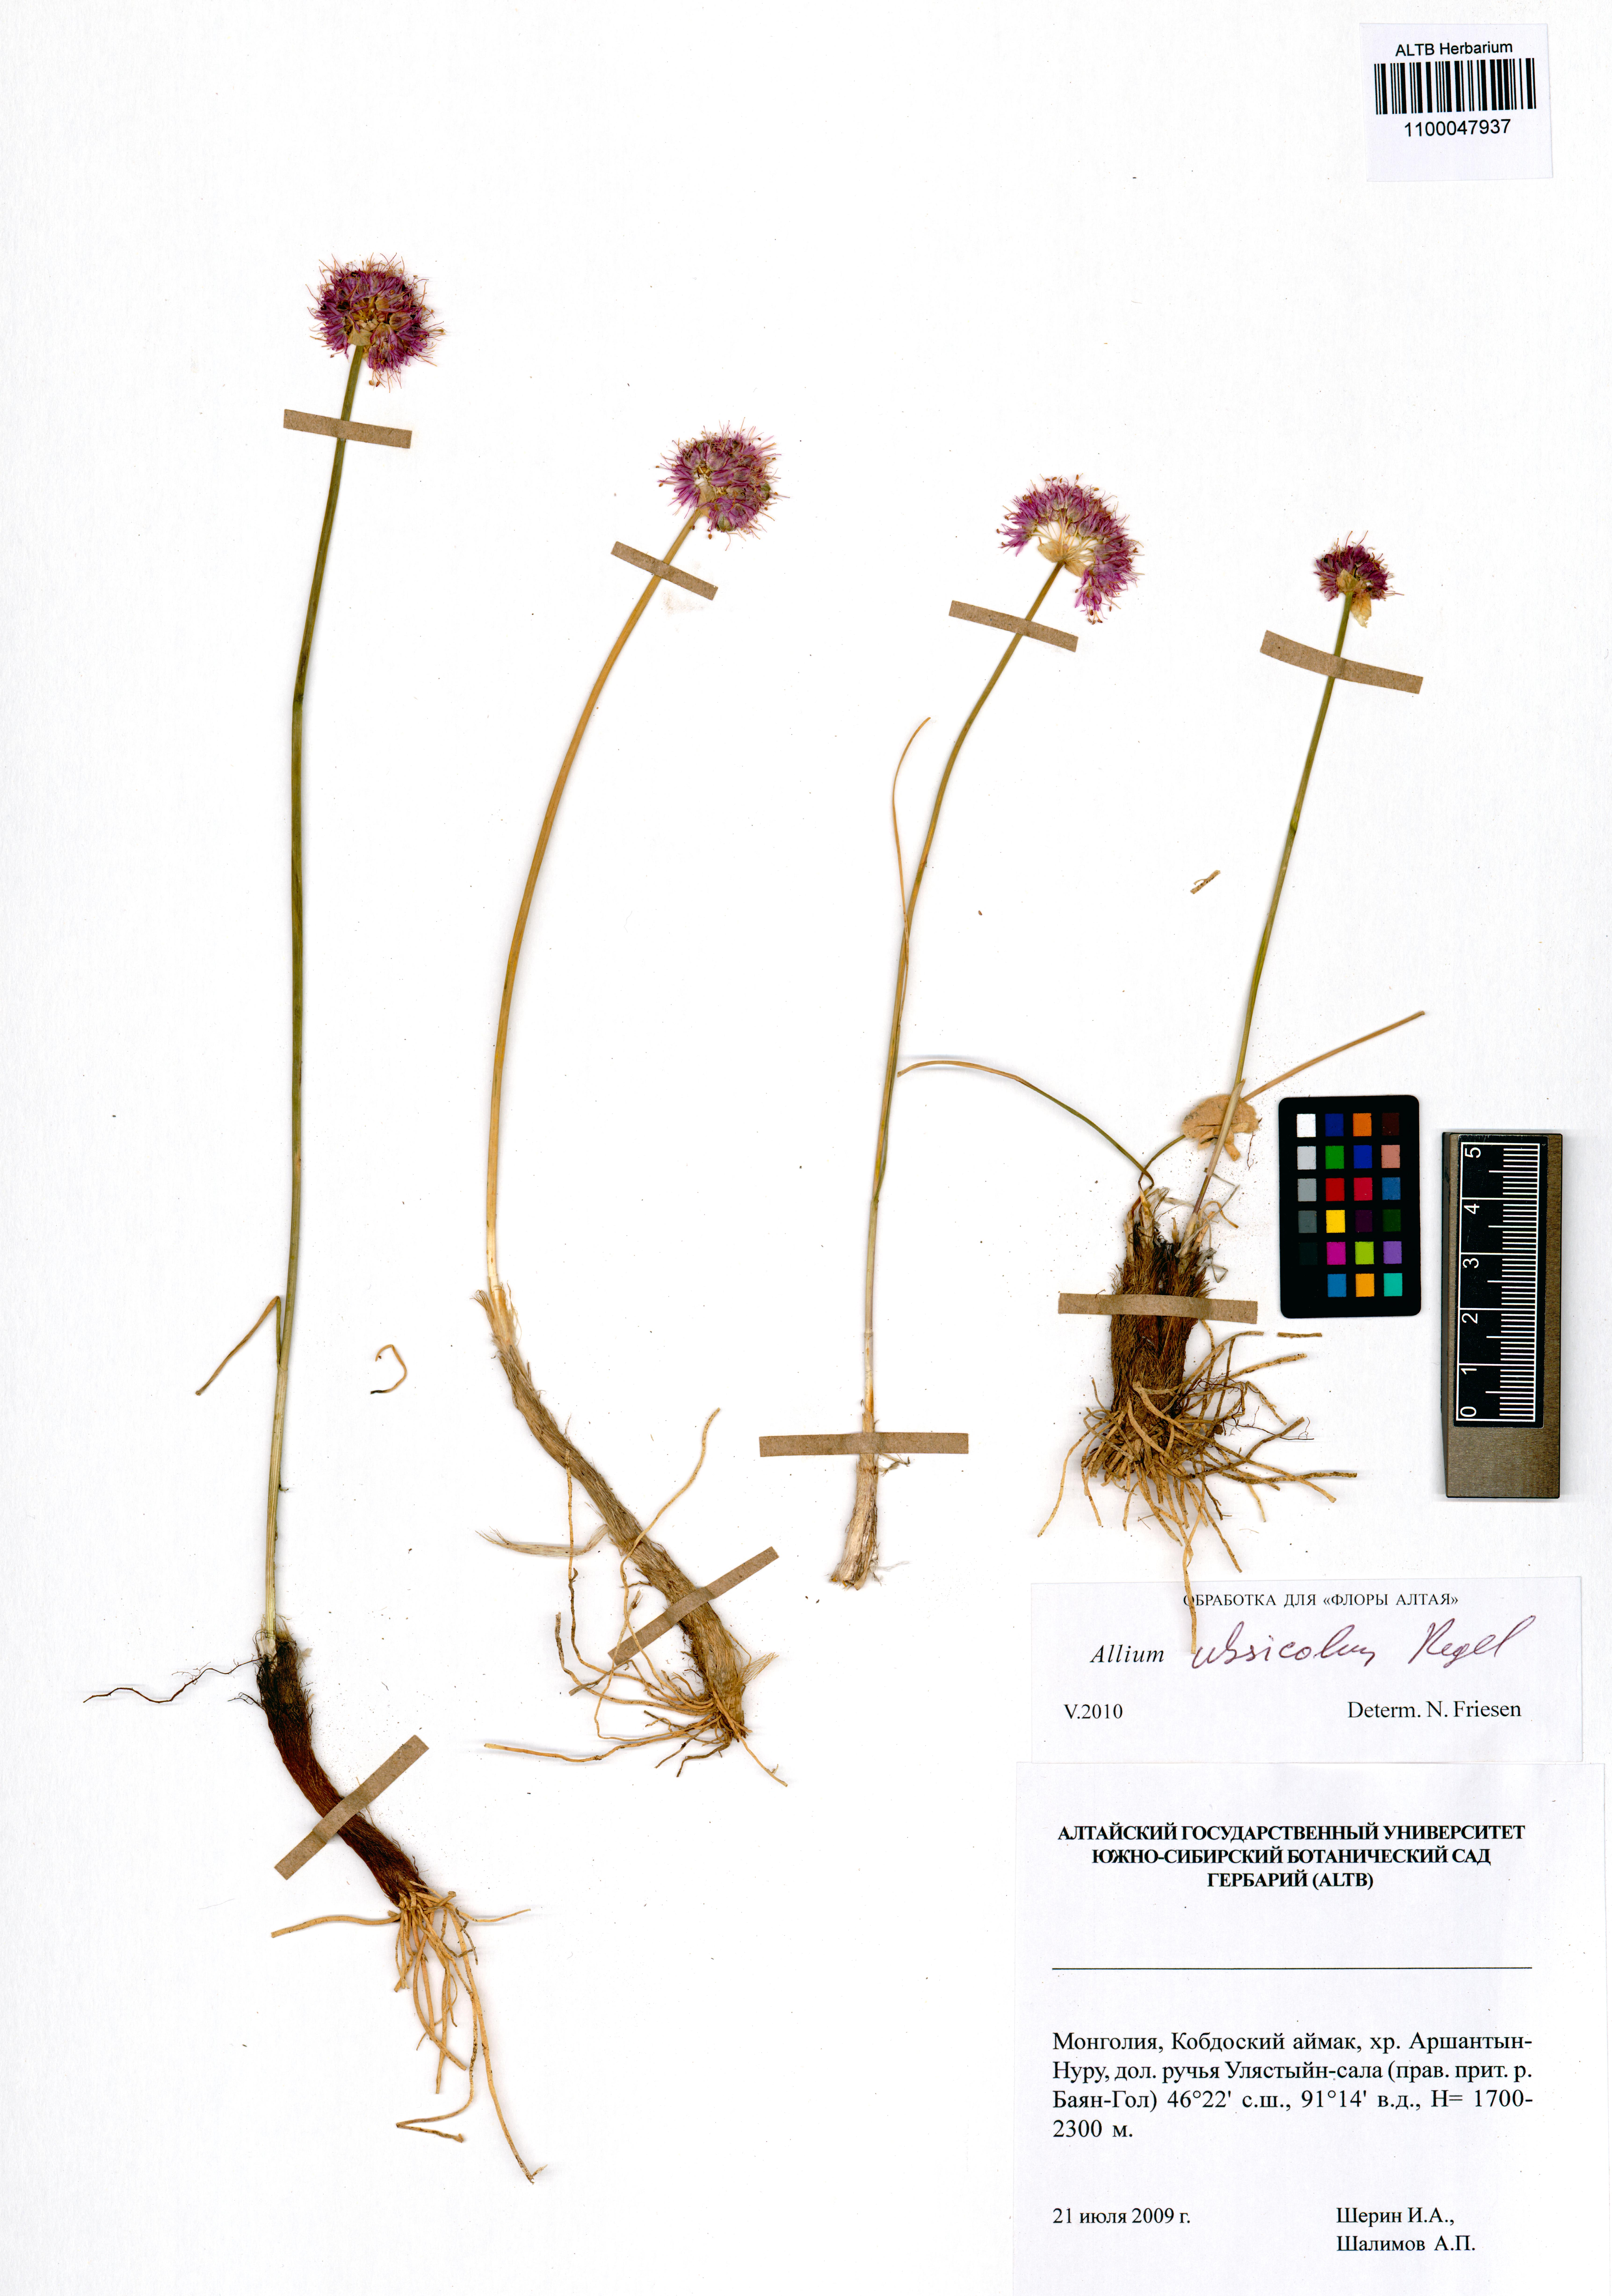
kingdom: Plantae
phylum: Tracheophyta
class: Liliopsida
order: Asparagales
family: Amaryllidaceae
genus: Allium
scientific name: Allium ubsicola
